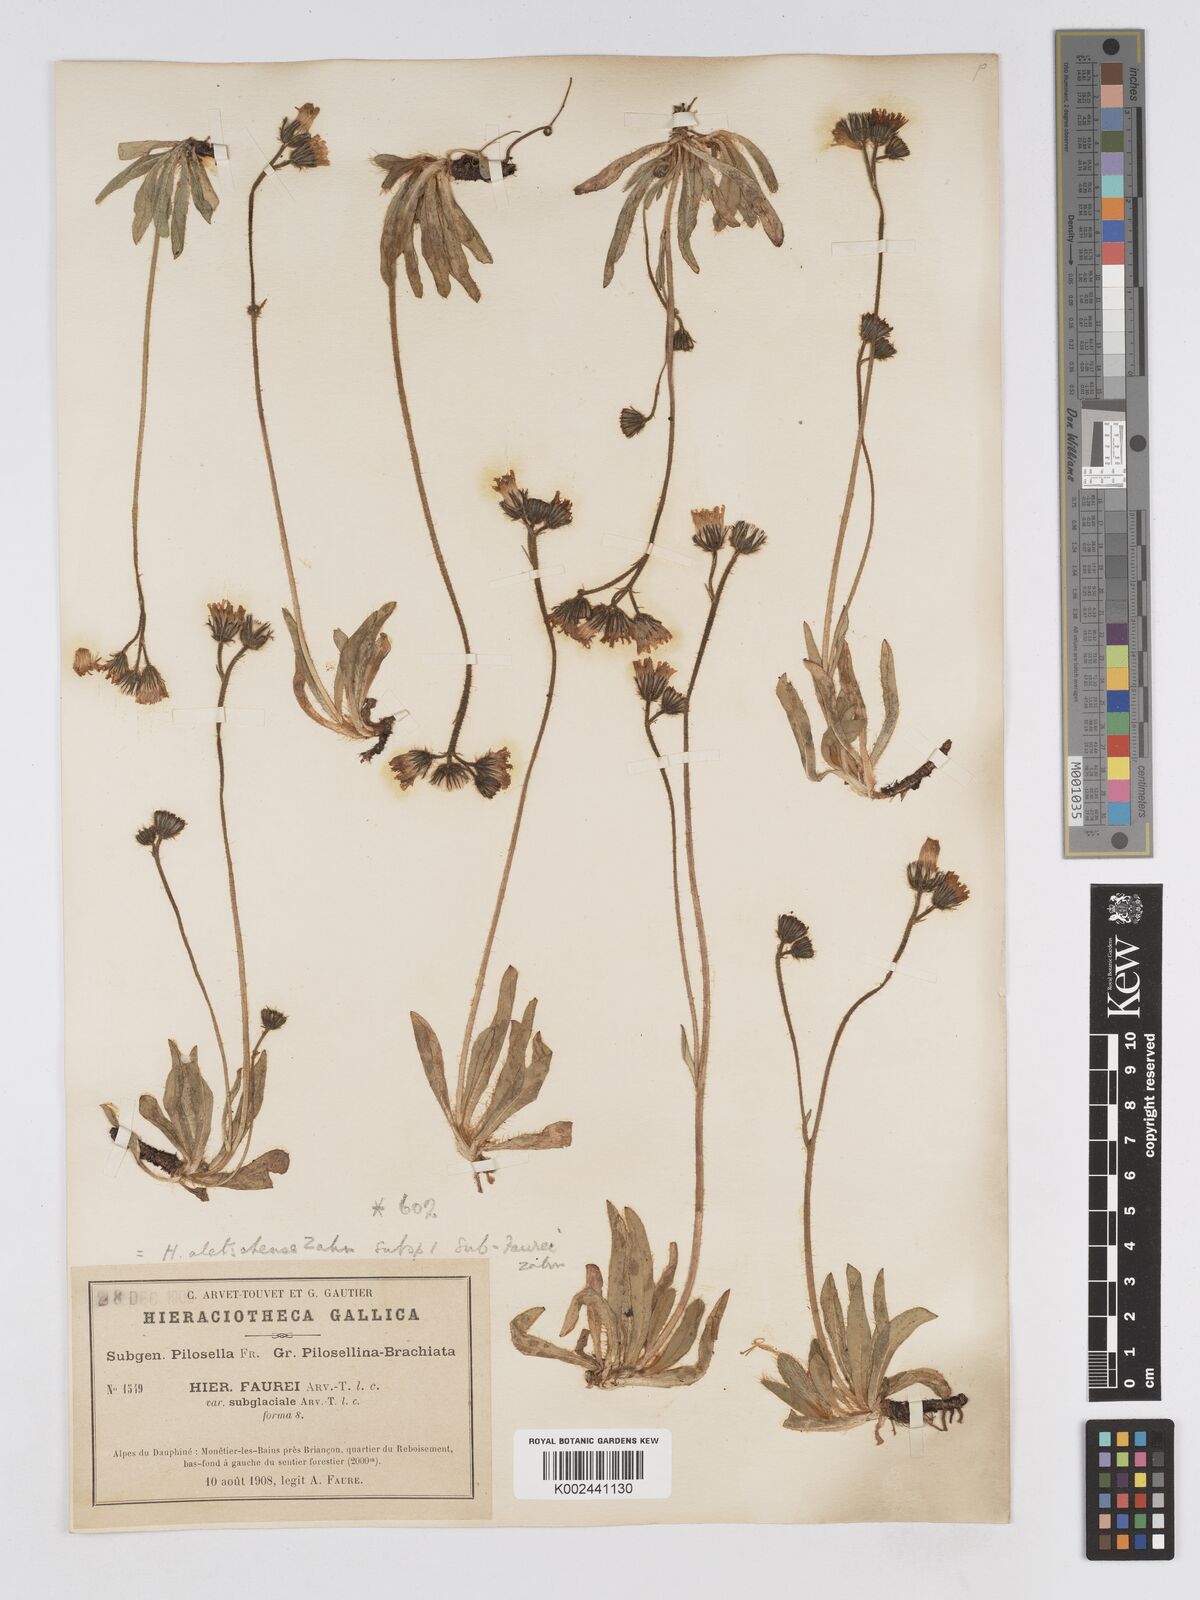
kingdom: Plantae
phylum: Tracheophyta
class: Magnoliopsida
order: Asterales
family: Asteraceae
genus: Pilosella
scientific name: Pilosella aletschensis
